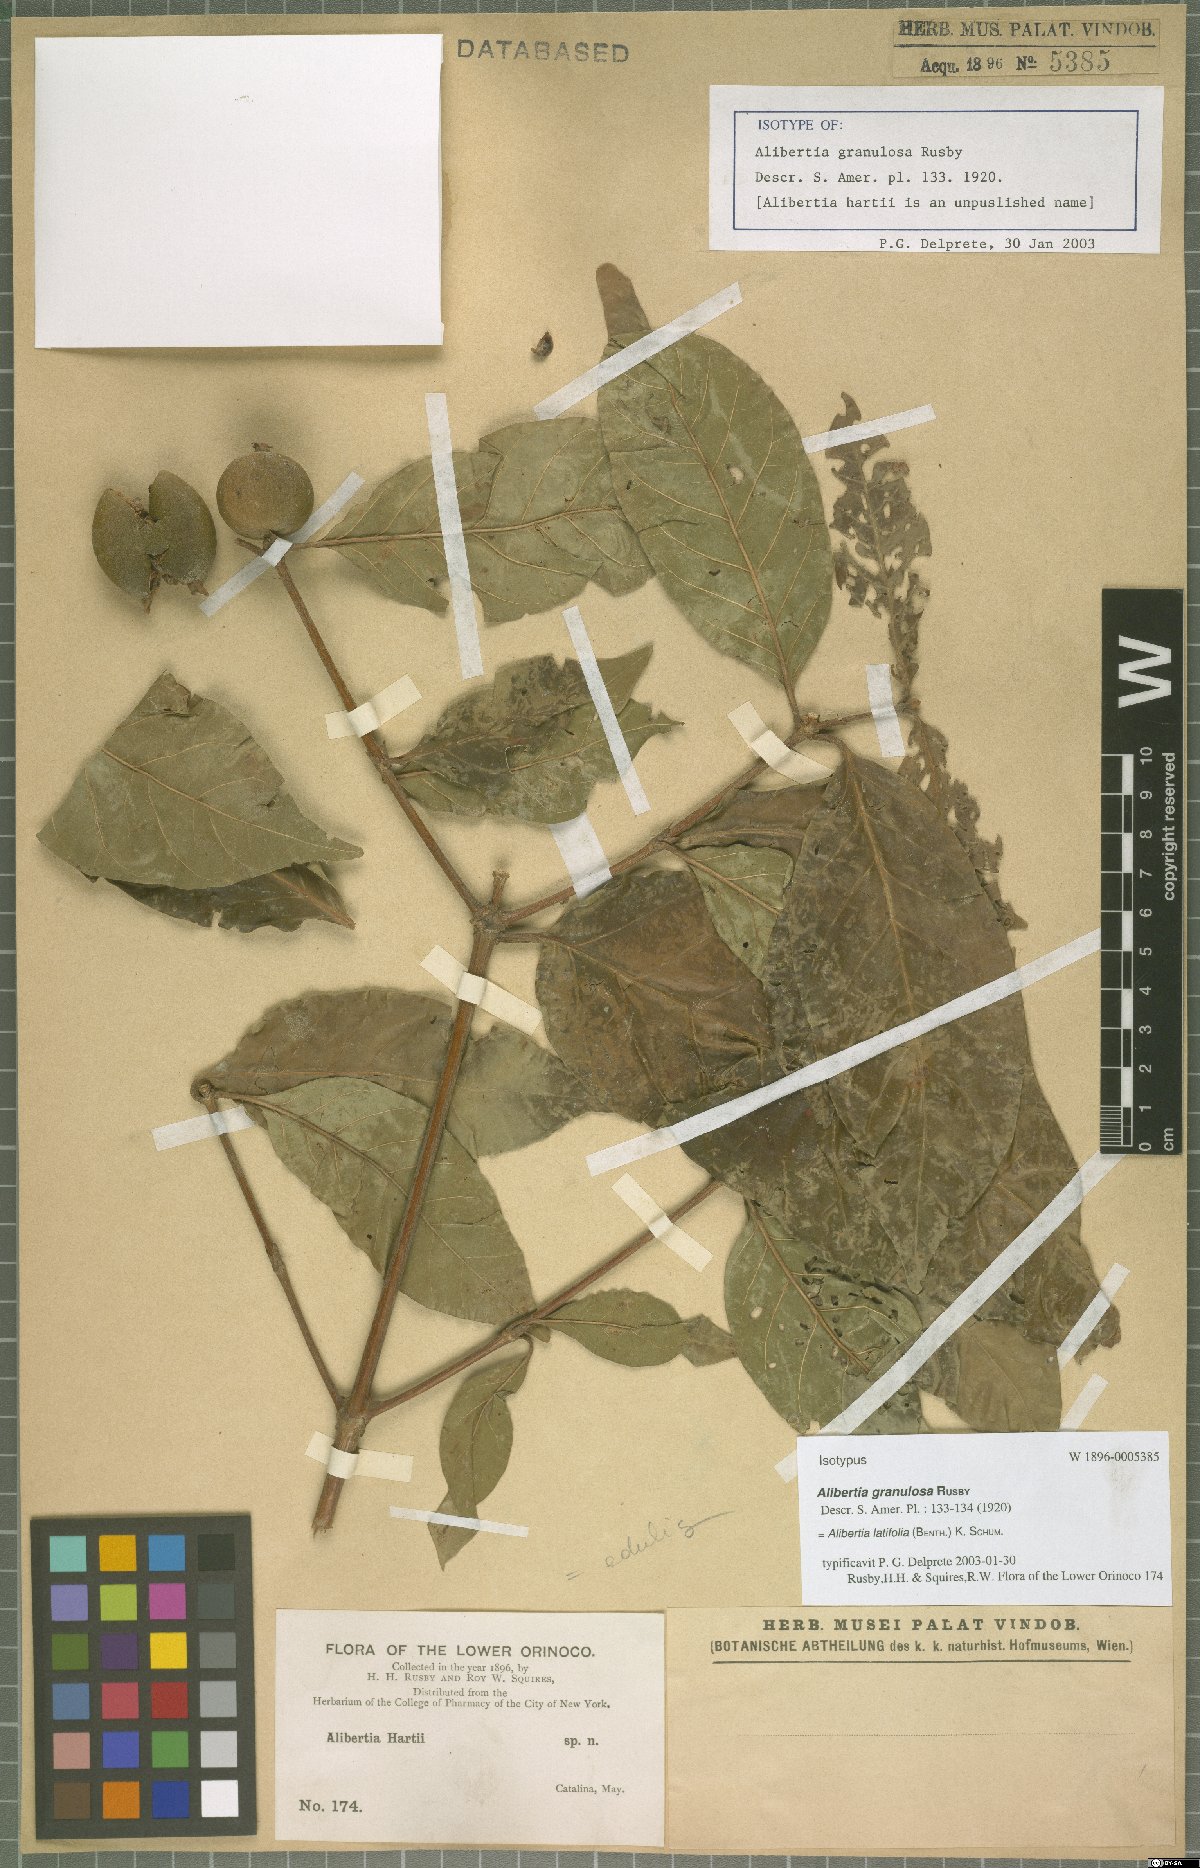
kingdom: Plantae
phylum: Tracheophyta
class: Magnoliopsida
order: Gentianales
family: Rubiaceae
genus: Alibertia
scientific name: Alibertia latifolia
